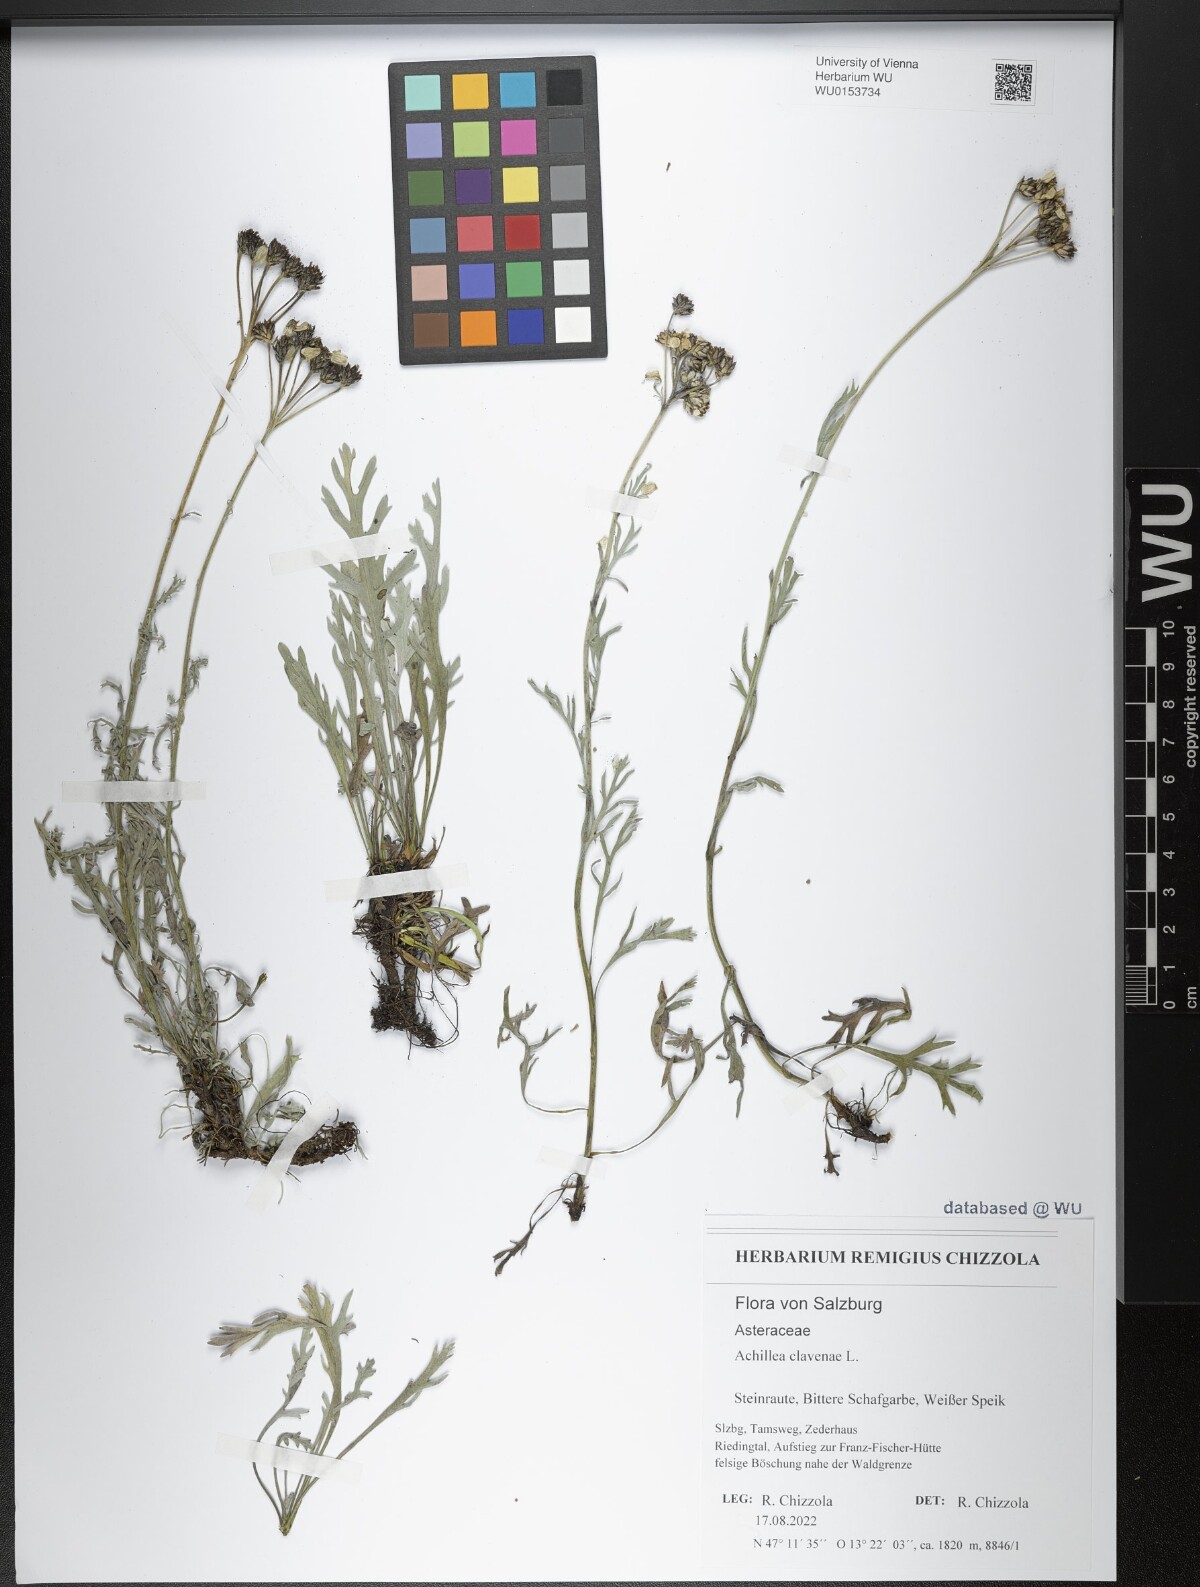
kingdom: Plantae
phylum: Tracheophyta
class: Magnoliopsida
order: Asterales
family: Asteraceae
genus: Achillea
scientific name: Achillea clavennae
